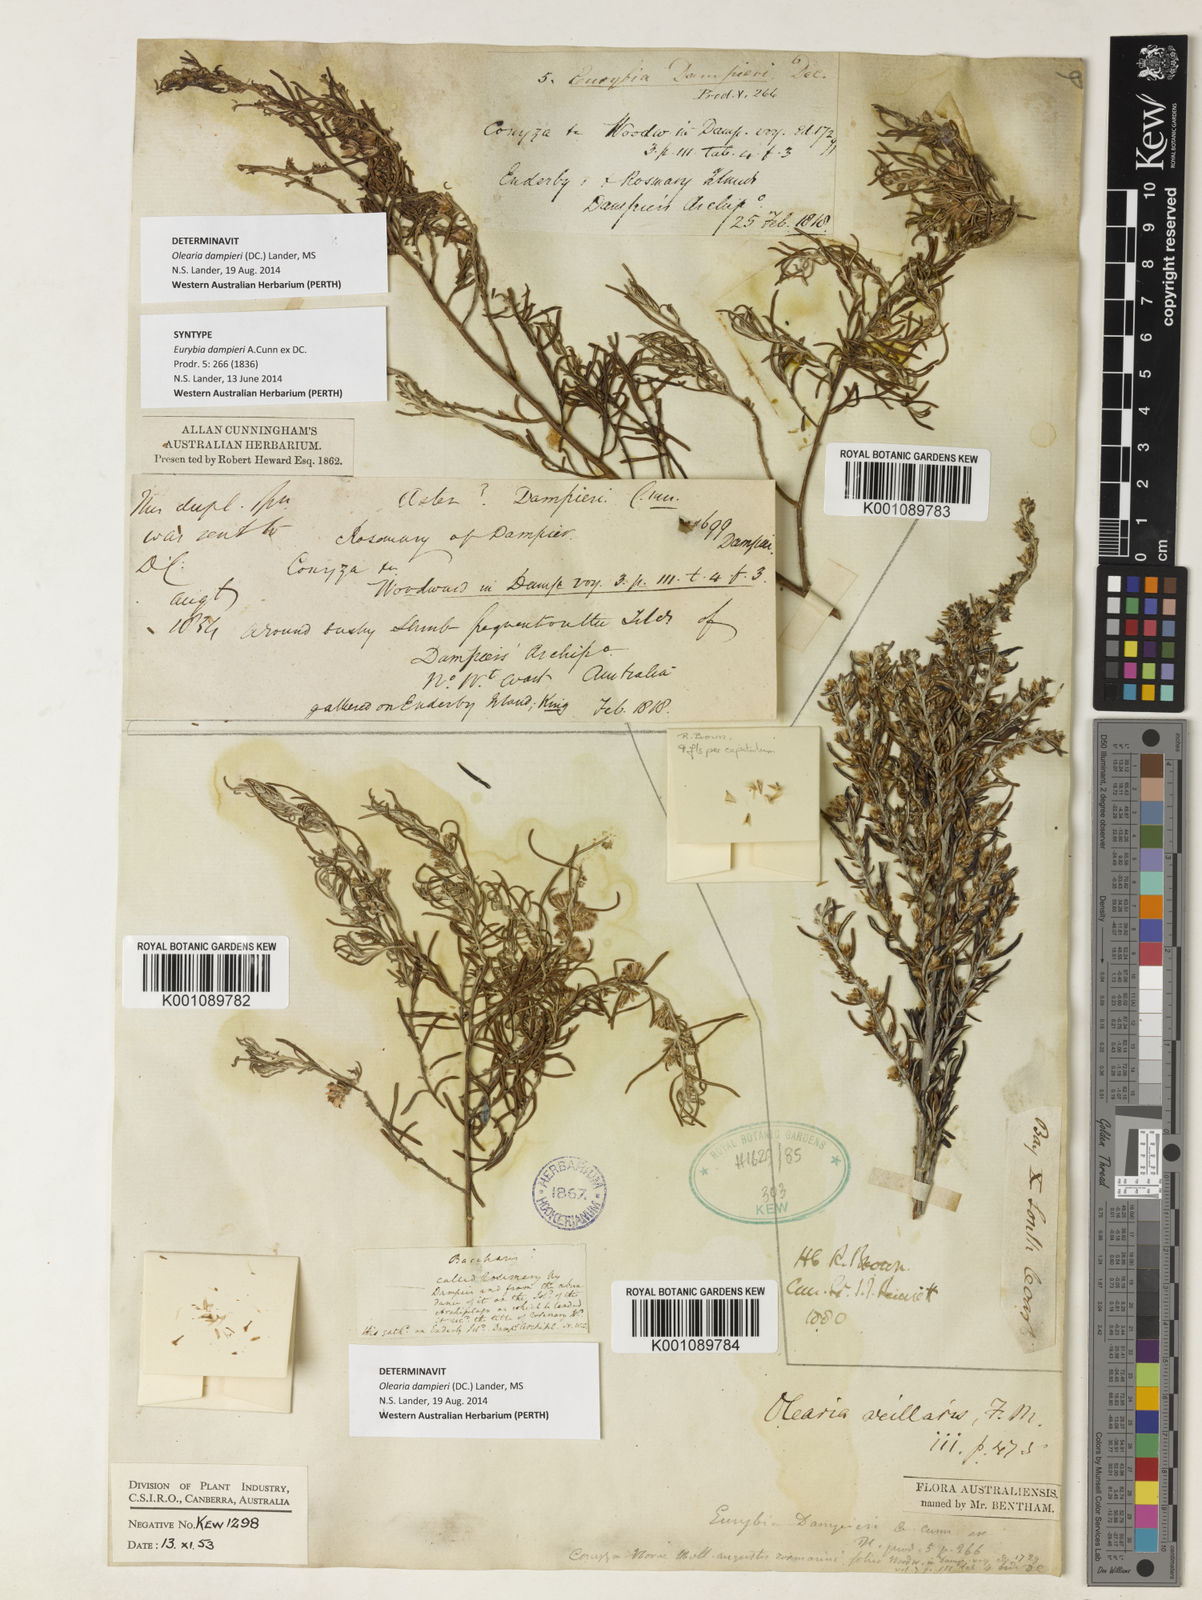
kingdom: Plantae
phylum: Tracheophyta
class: Magnoliopsida
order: Asterales
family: Asteraceae
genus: Olearia
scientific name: Olearia
